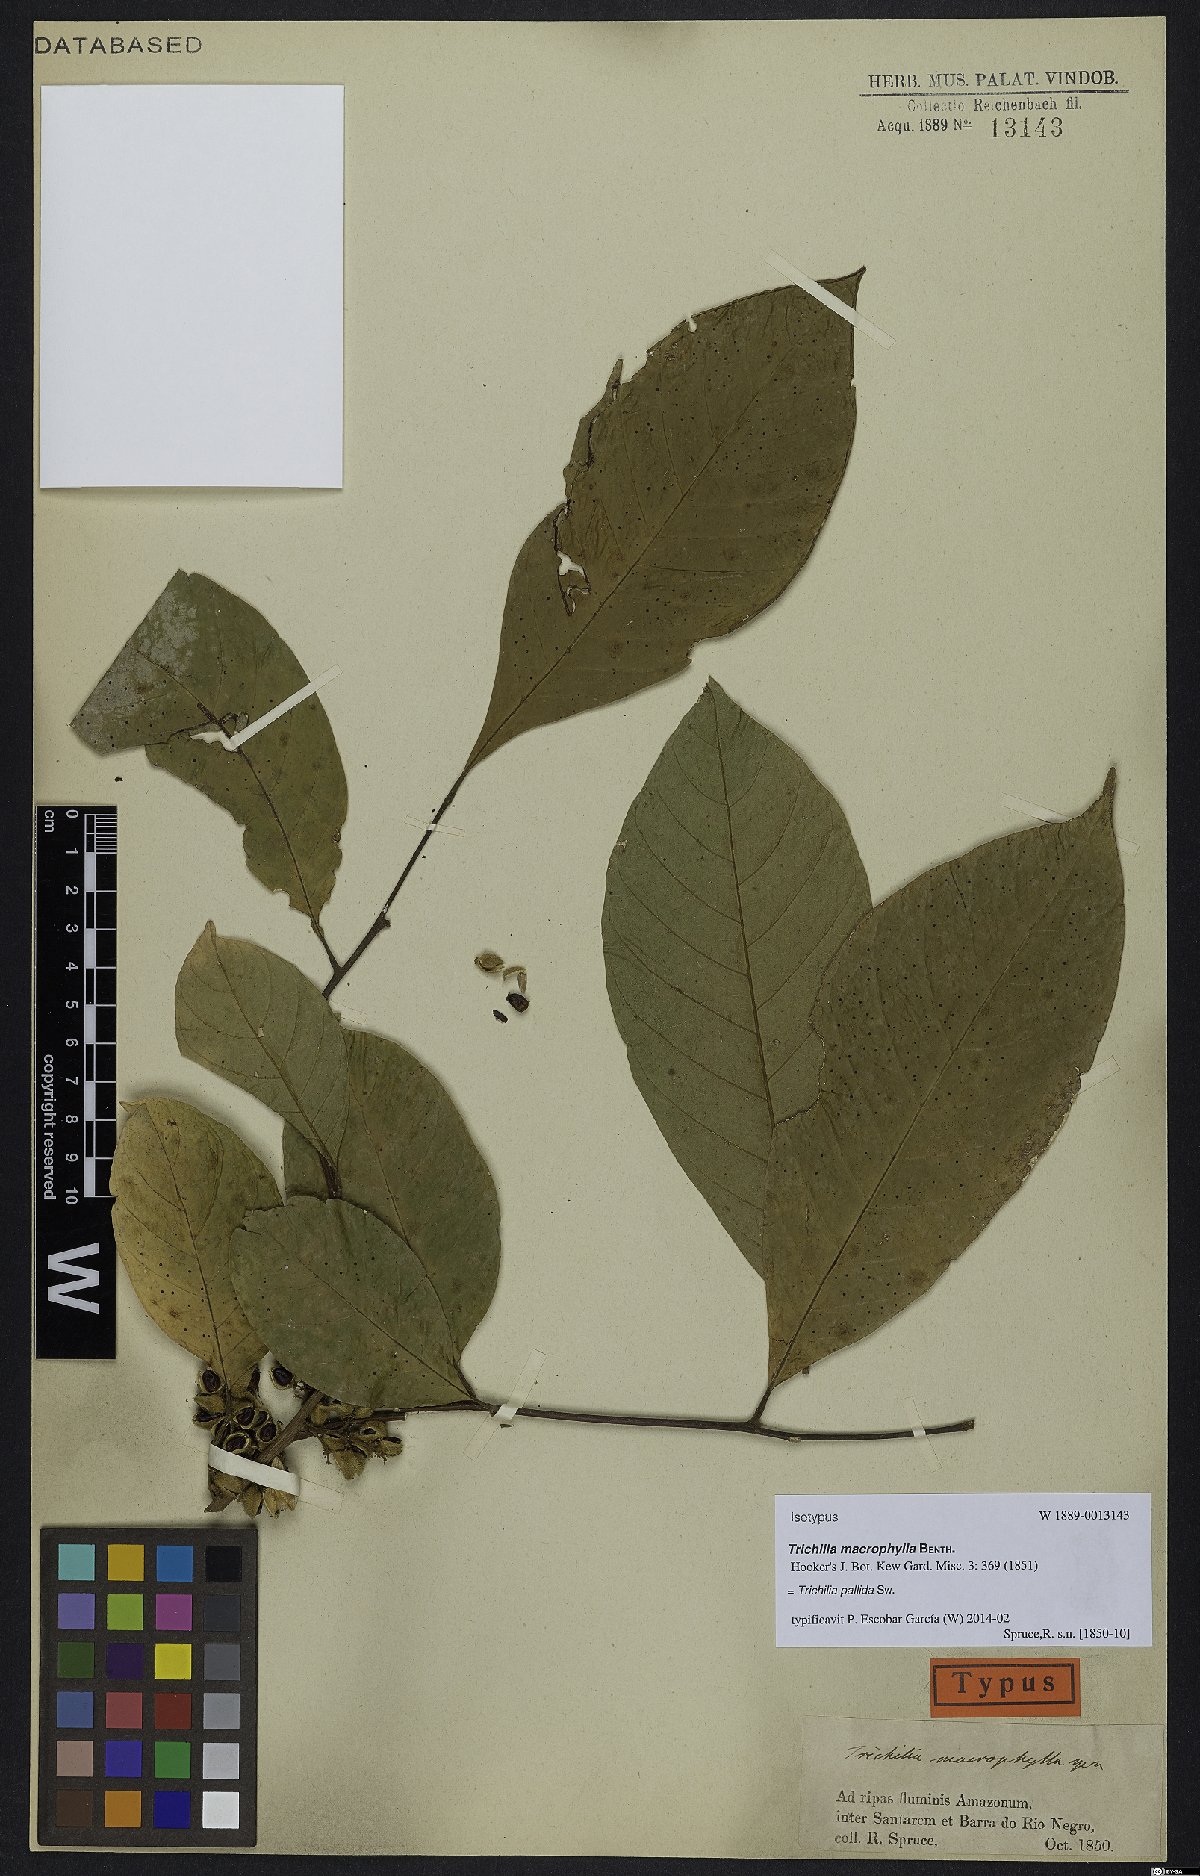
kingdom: Plantae
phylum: Tracheophyta
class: Magnoliopsida
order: Sapindales
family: Meliaceae
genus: Trichilia
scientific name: Trichilia pallida
